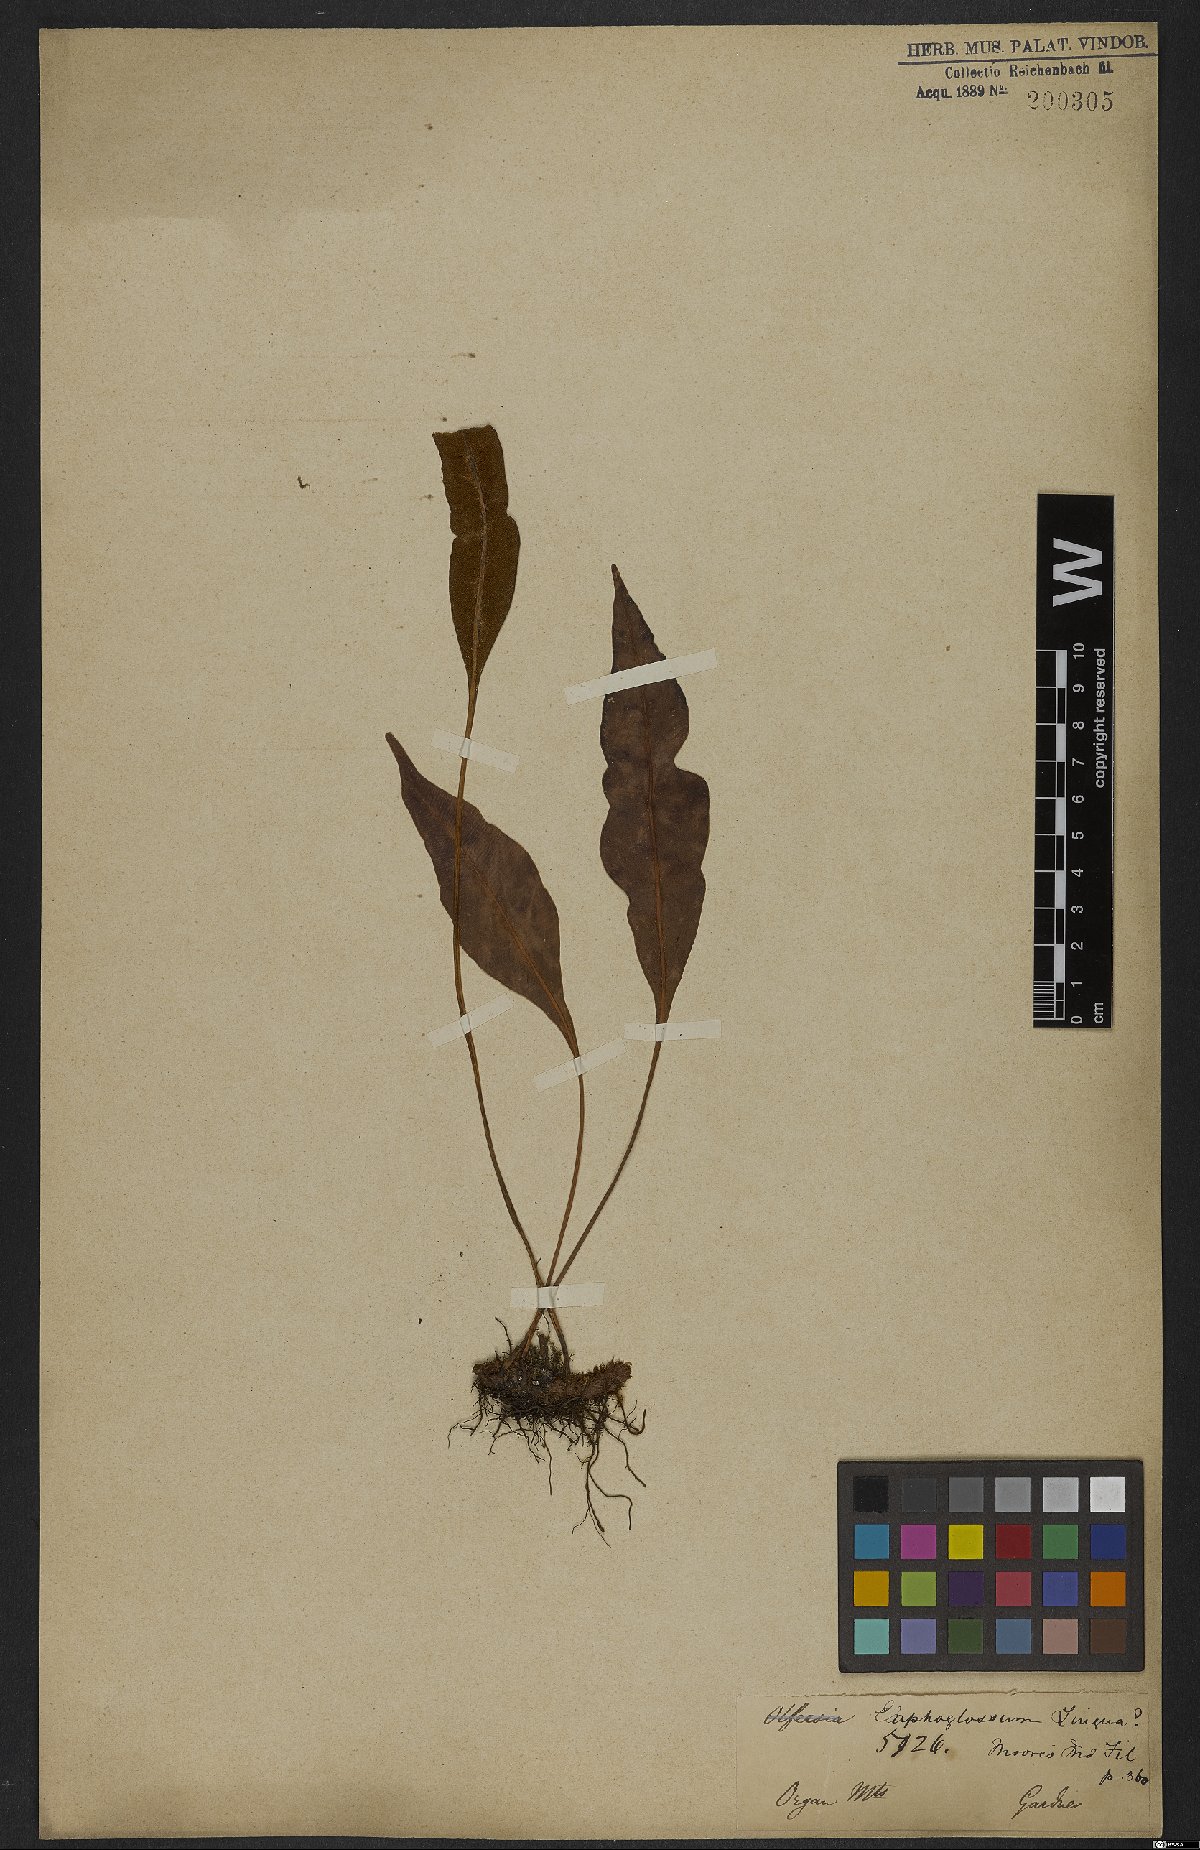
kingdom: Plantae
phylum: Tracheophyta
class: Polypodiopsida
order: Polypodiales
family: Dryopteridaceae
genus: Elaphoglossum
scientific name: Elaphoglossum brachyneuron
